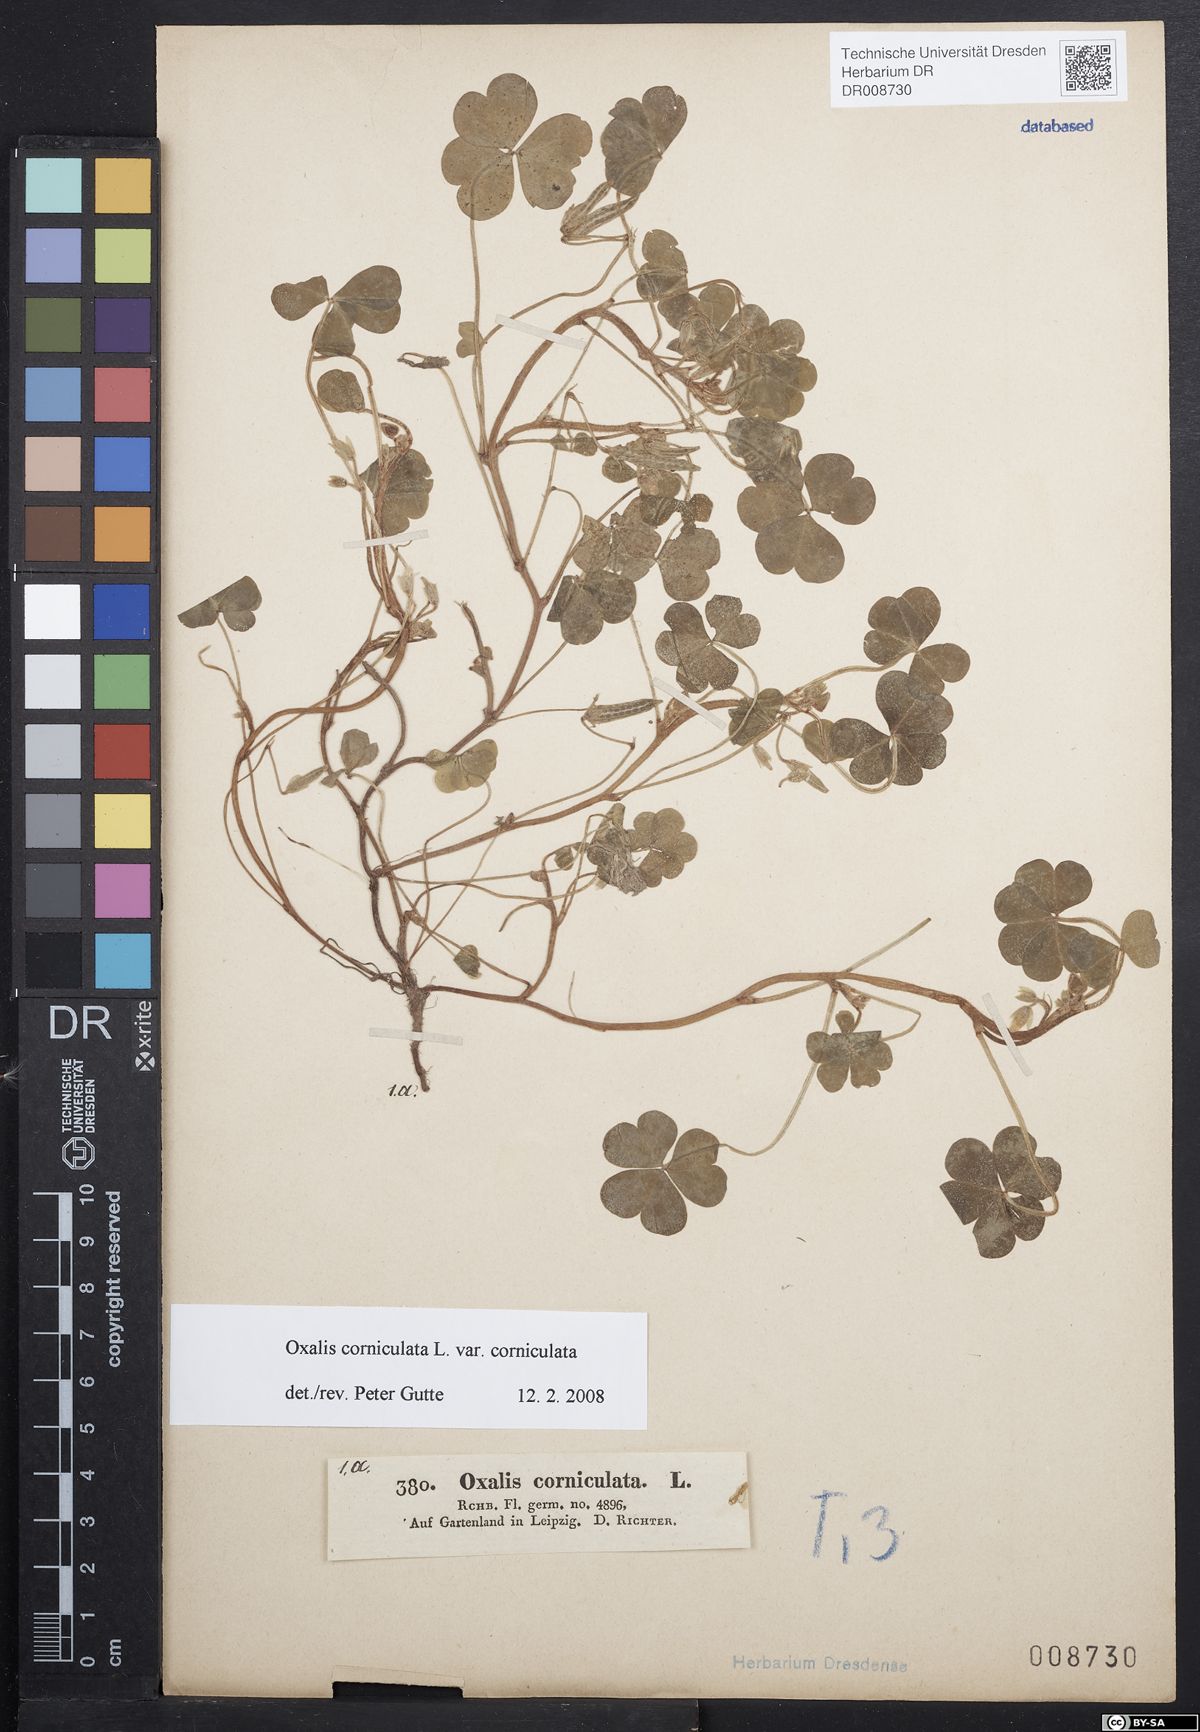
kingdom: Plantae
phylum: Tracheophyta
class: Magnoliopsida
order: Oxalidales
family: Oxalidaceae
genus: Oxalis
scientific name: Oxalis corniculata
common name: Procumbent yellow-sorrel
